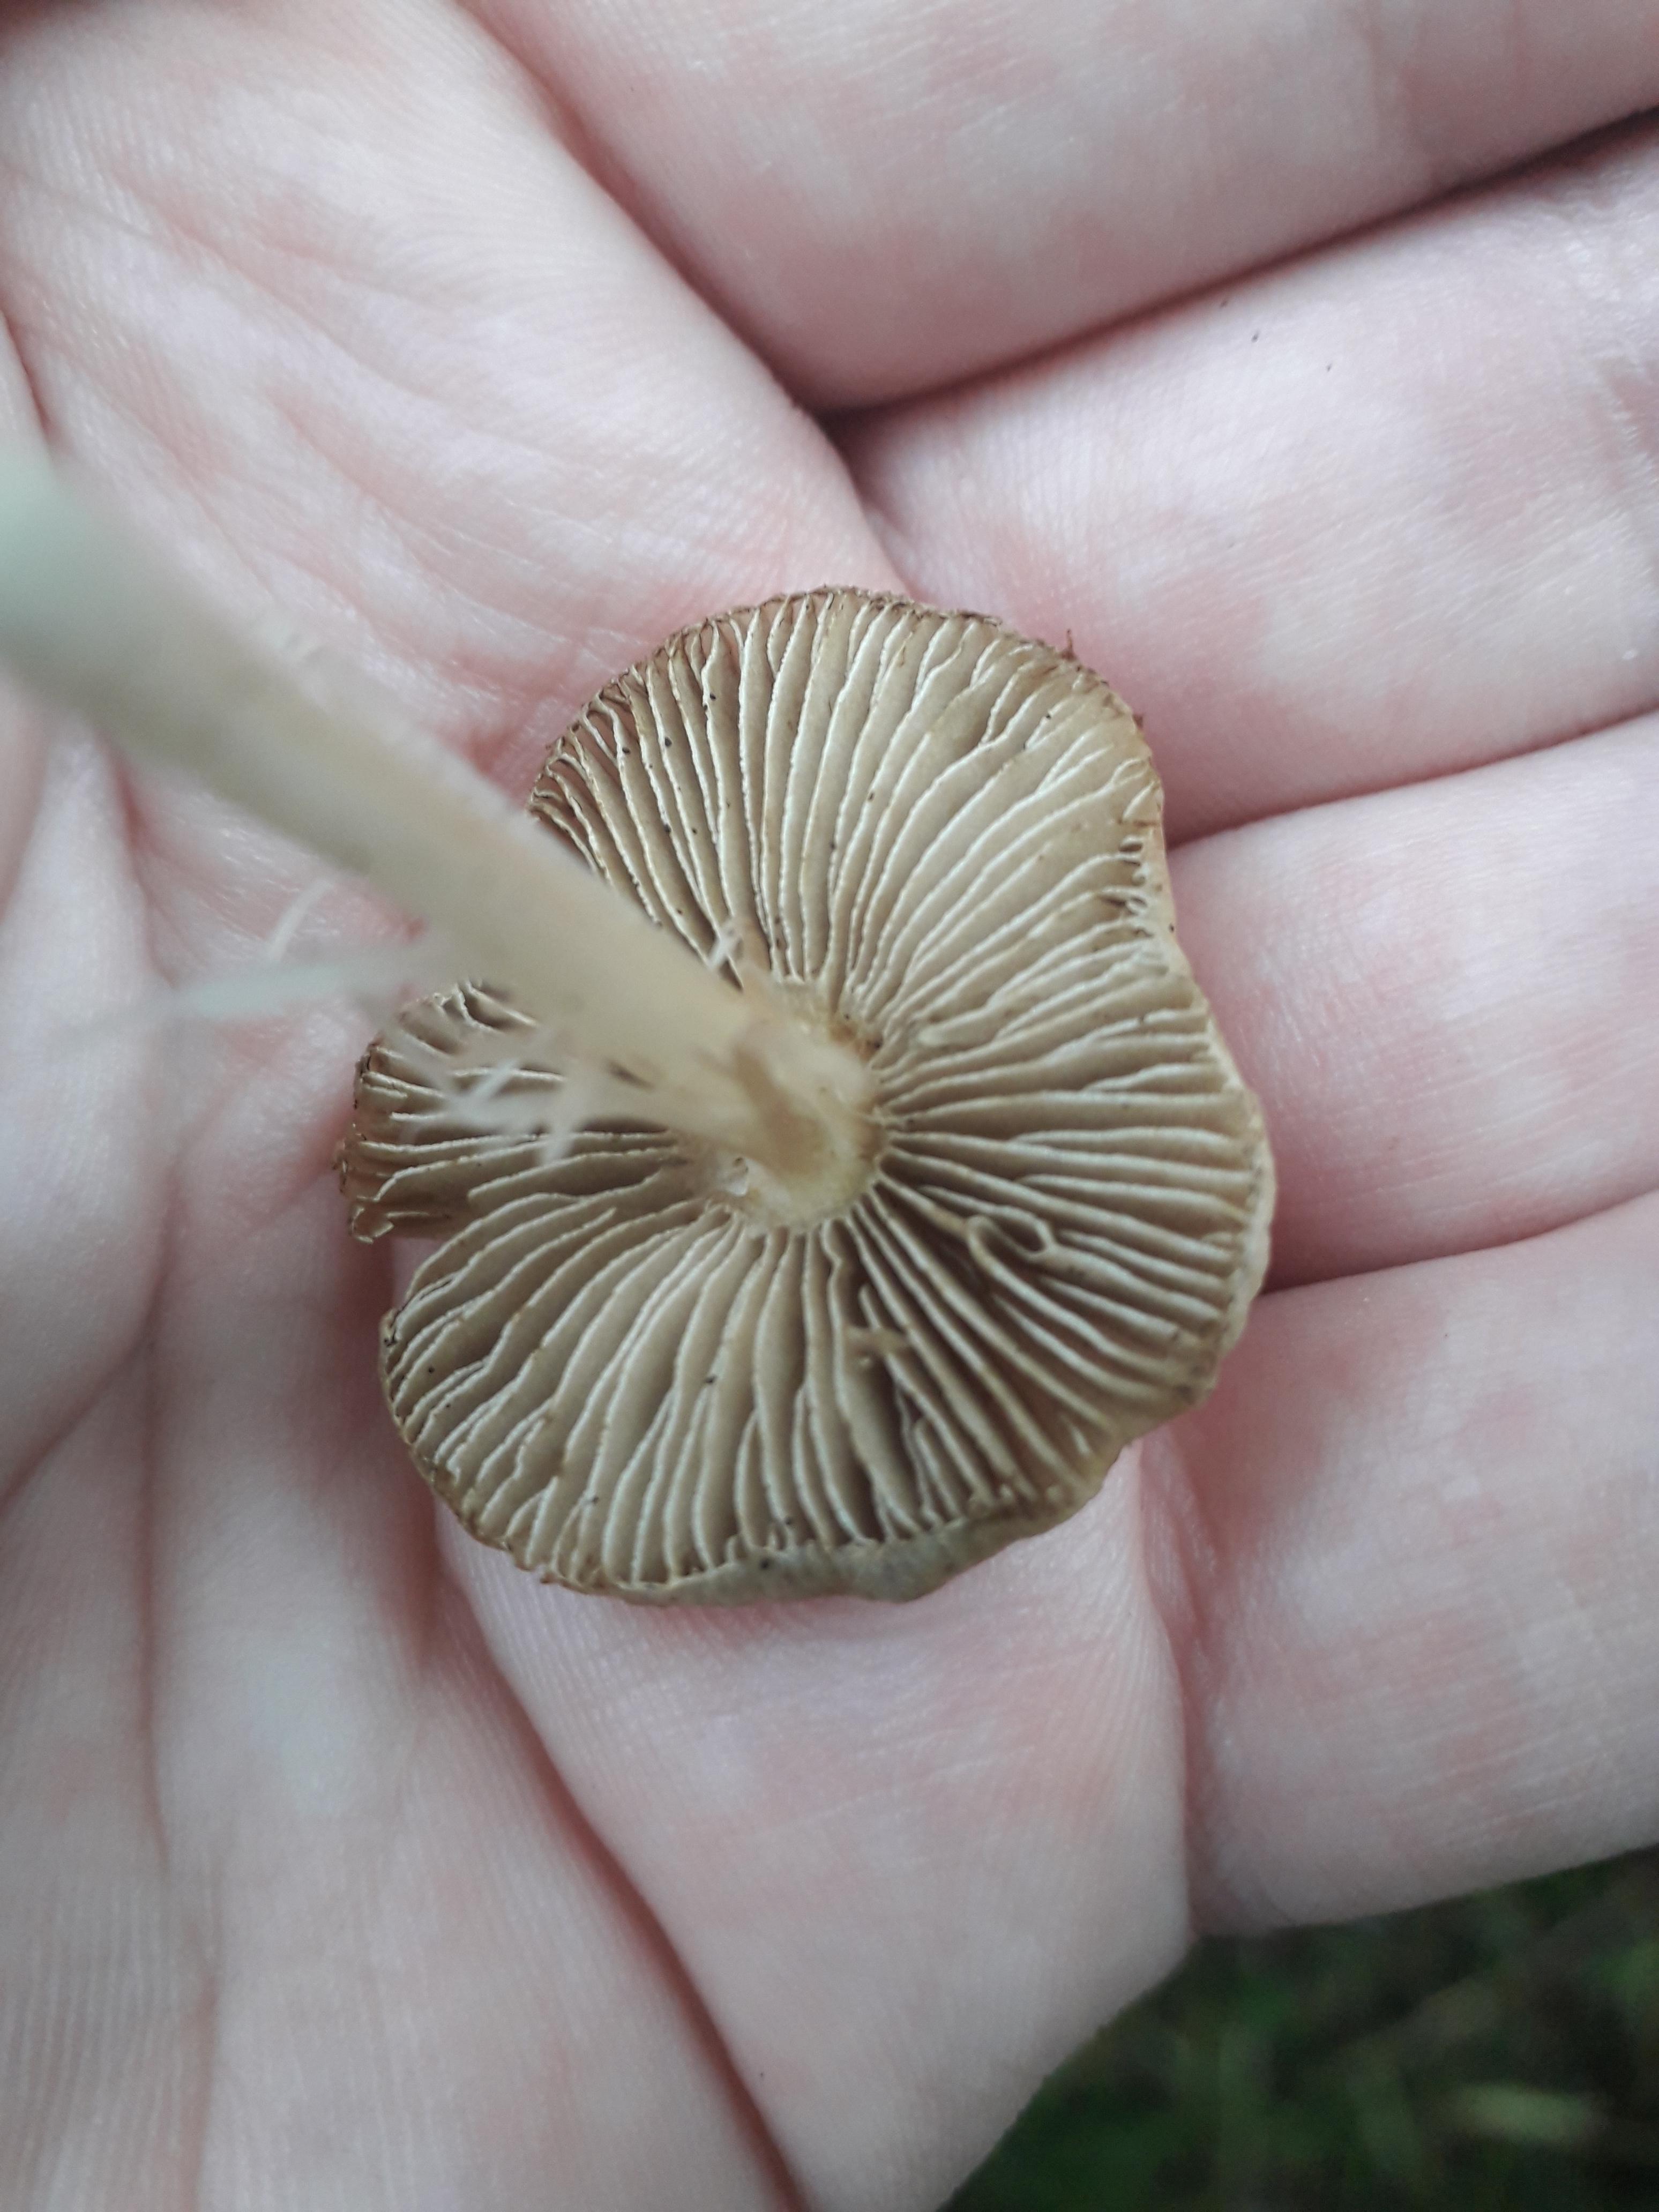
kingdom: Fungi
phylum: Basidiomycota
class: Agaricomycetes
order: Agaricales
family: Strophariaceae
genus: Hypholoma
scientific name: Hypholoma fasciculare
